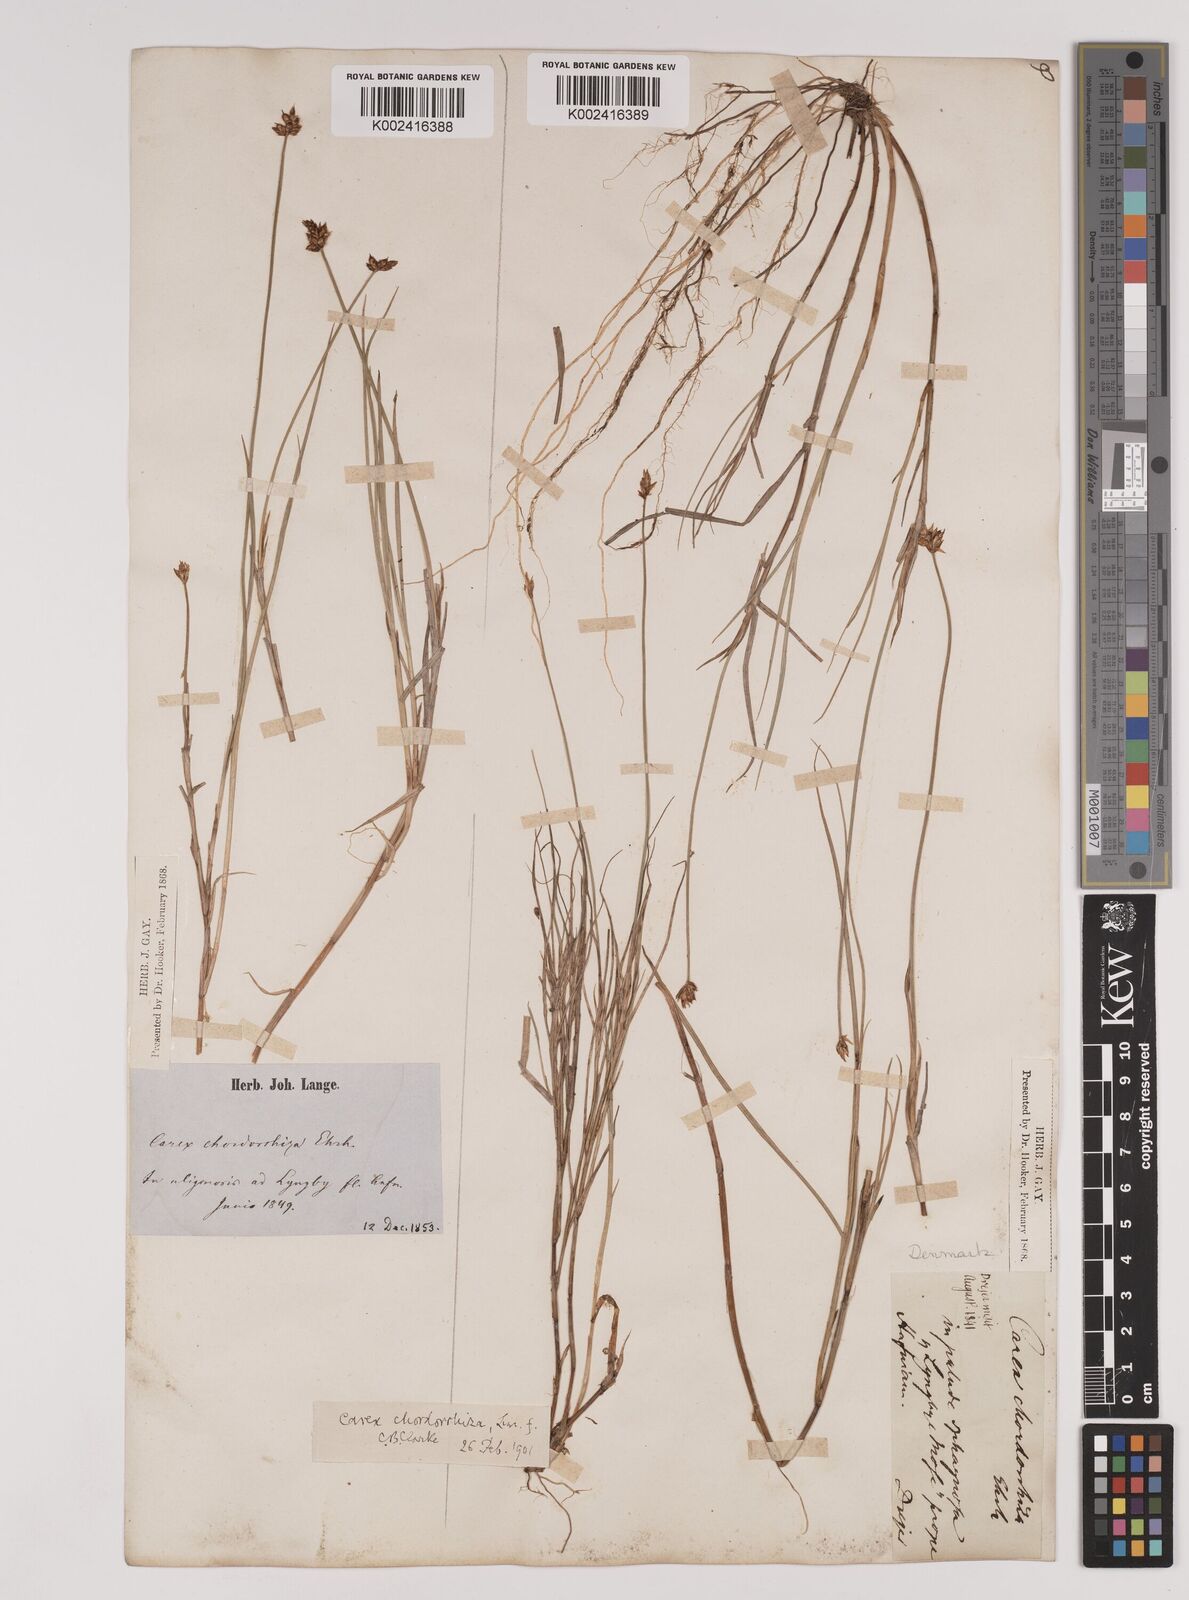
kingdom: Plantae
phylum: Tracheophyta
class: Liliopsida
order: Poales
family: Cyperaceae
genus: Carex
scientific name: Carex chordorrhiza
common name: String sedge
